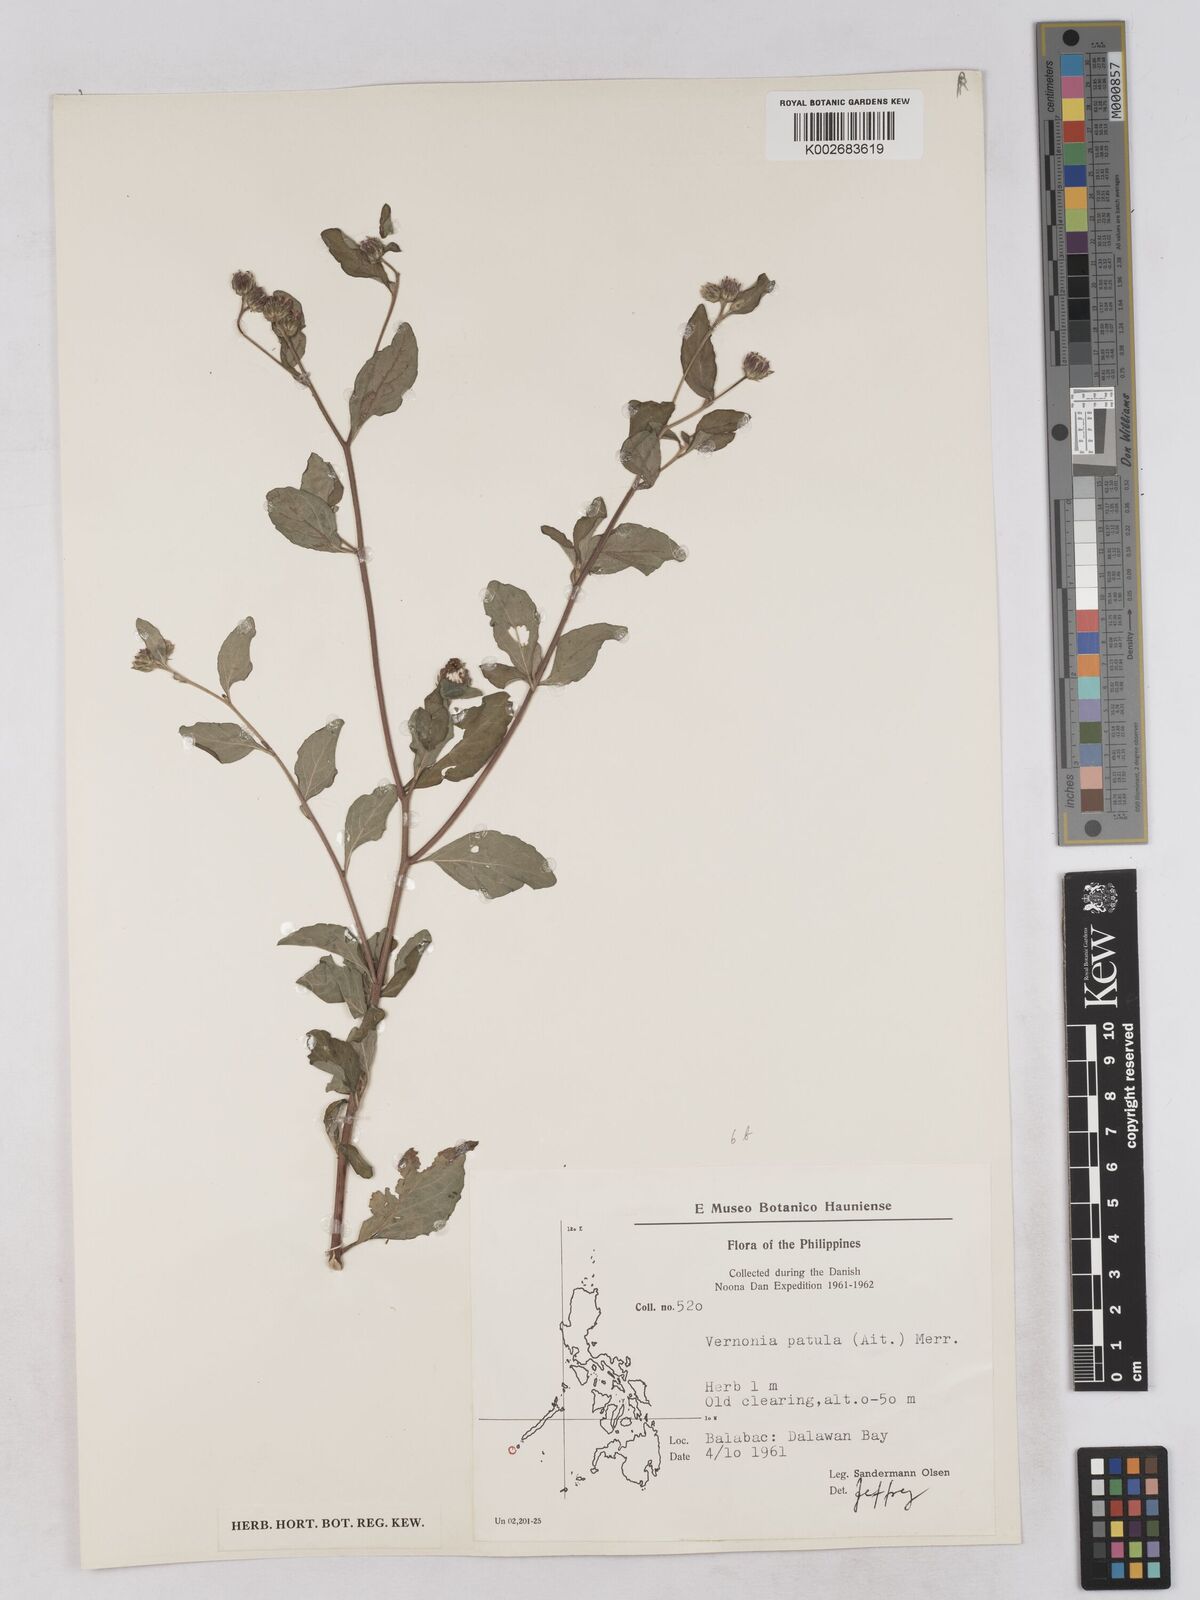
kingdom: Plantae
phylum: Tracheophyta
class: Magnoliopsida
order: Asterales
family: Asteraceae
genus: Cyanthillium
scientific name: Cyanthillium patulum
